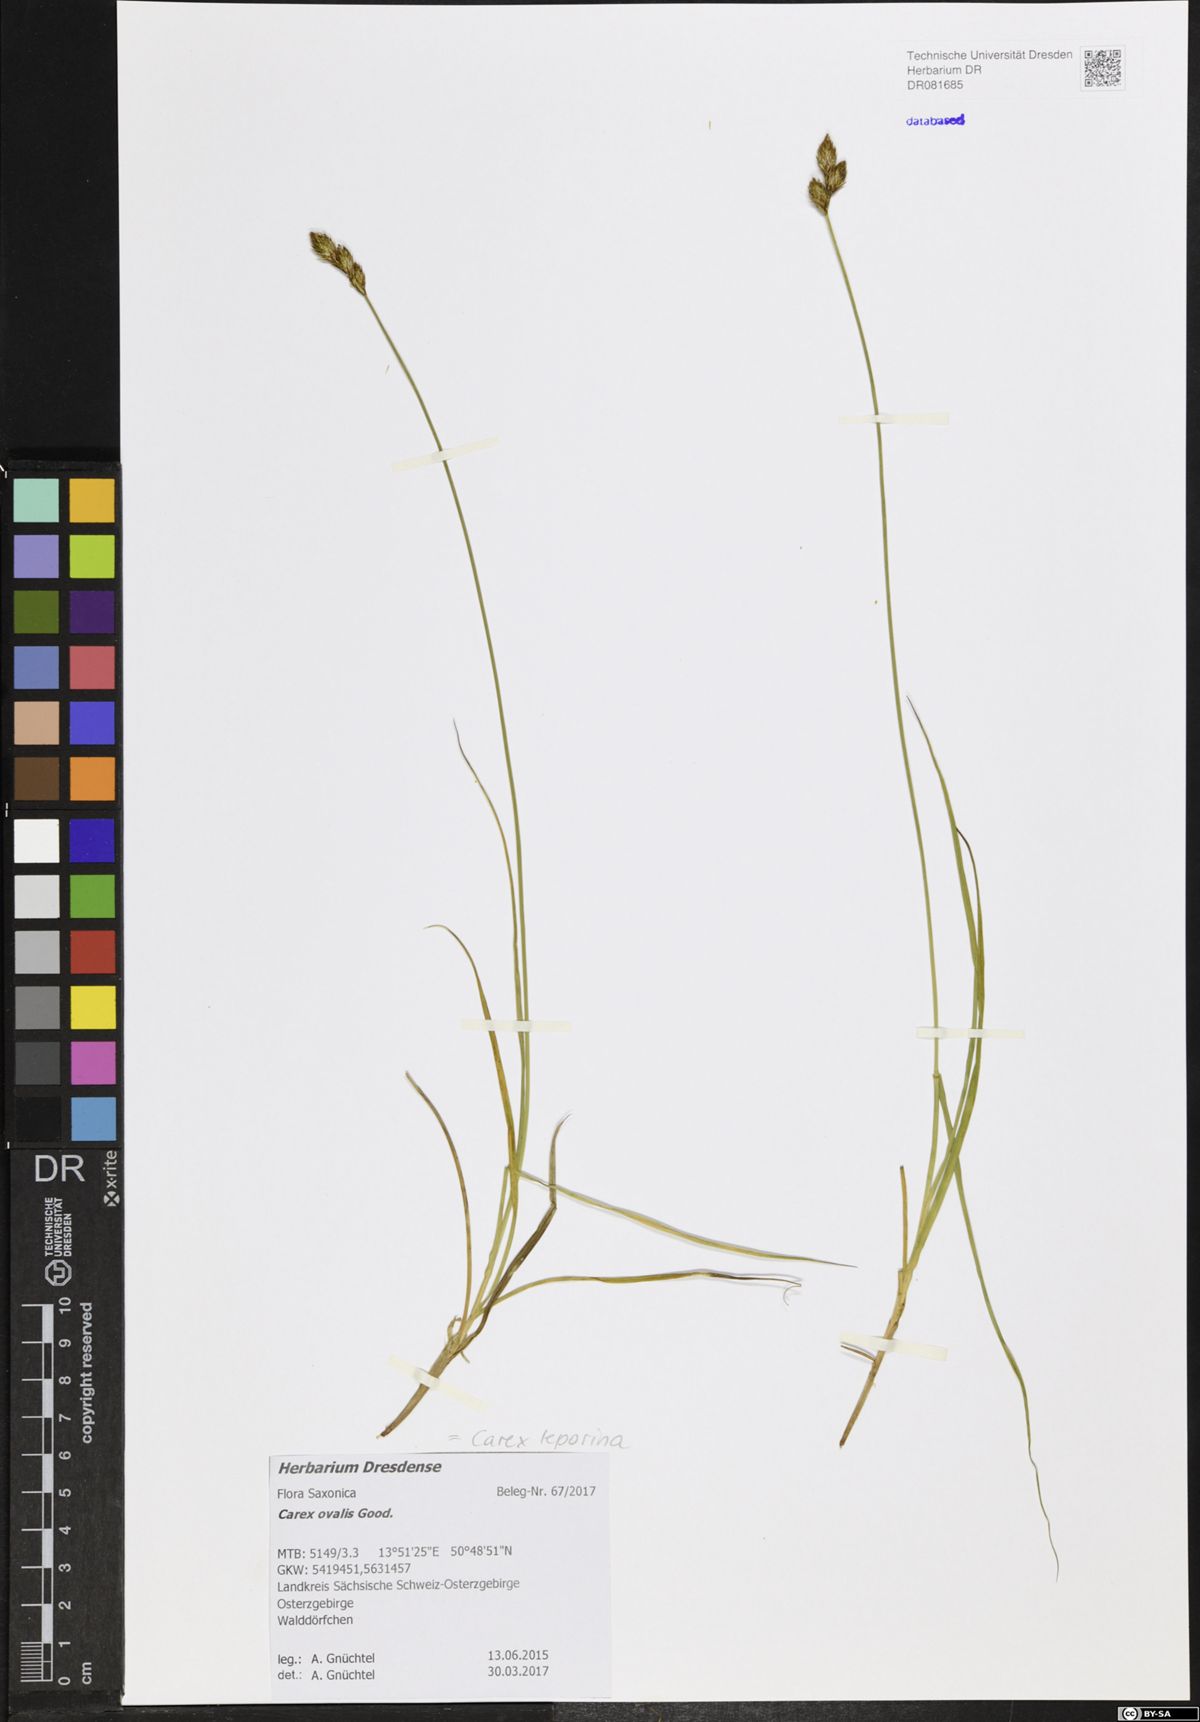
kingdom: Plantae
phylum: Tracheophyta
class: Liliopsida
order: Poales
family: Cyperaceae
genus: Carex
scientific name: Carex leporina
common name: Oval sedge
